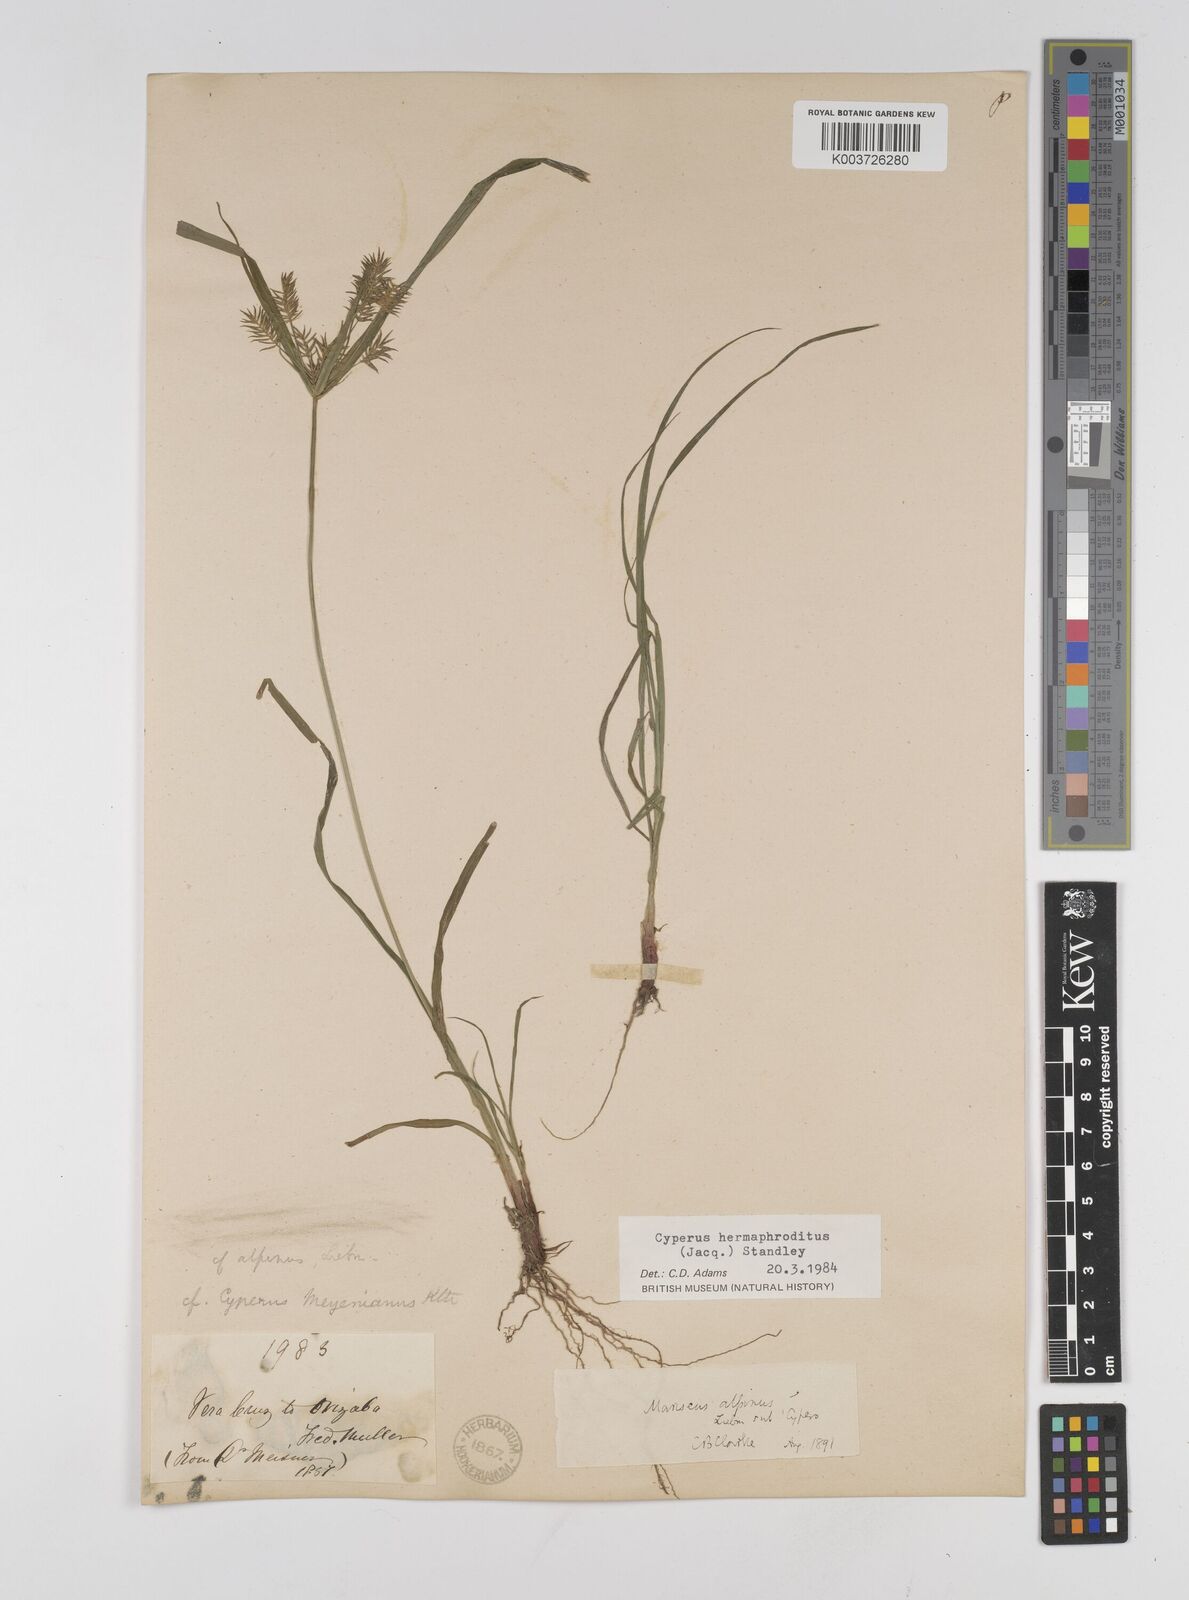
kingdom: Plantae
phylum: Tracheophyta
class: Liliopsida
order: Poales
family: Cyperaceae
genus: Cyperus
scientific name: Cyperus hermaphroditus
